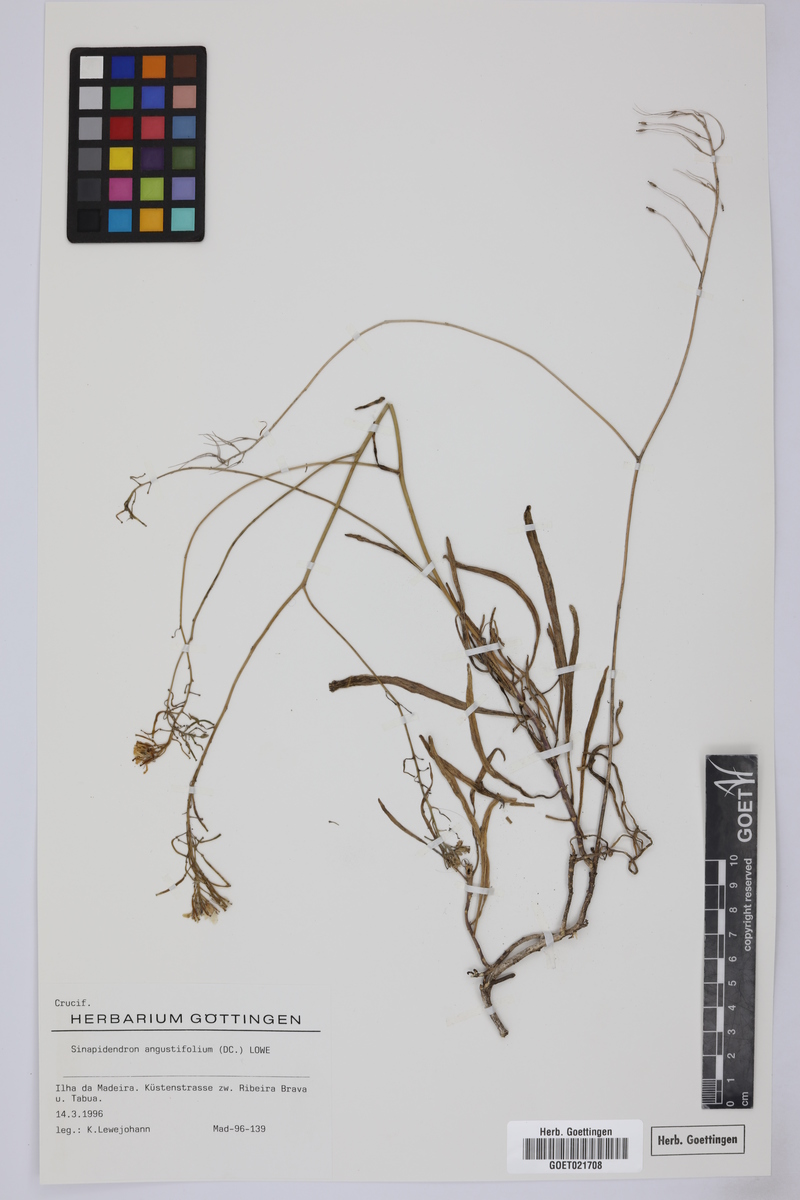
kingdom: Plantae
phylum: Tracheophyta
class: Magnoliopsida
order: Brassicales
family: Brassicaceae
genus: Sinapidendron
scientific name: Sinapidendron angustifolium
